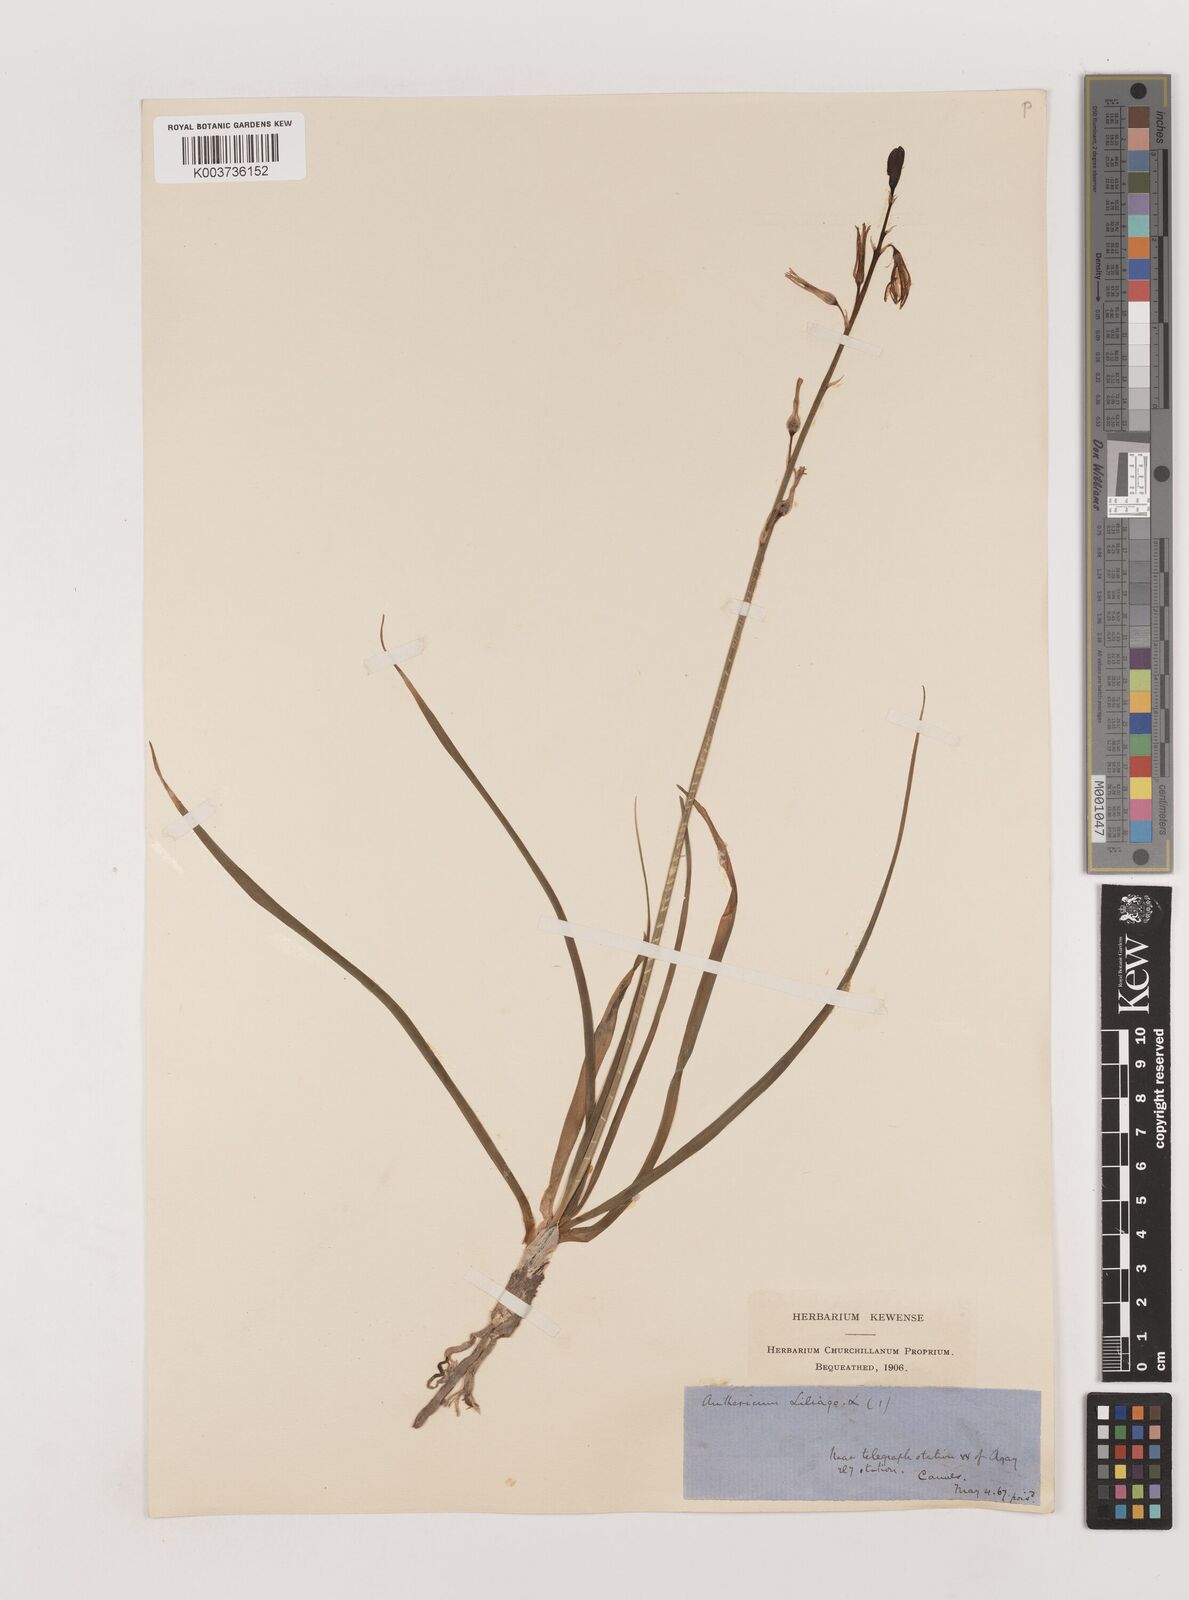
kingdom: Plantae
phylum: Tracheophyta
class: Liliopsida
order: Asparagales
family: Asparagaceae
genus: Anthericum
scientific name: Anthericum liliago
